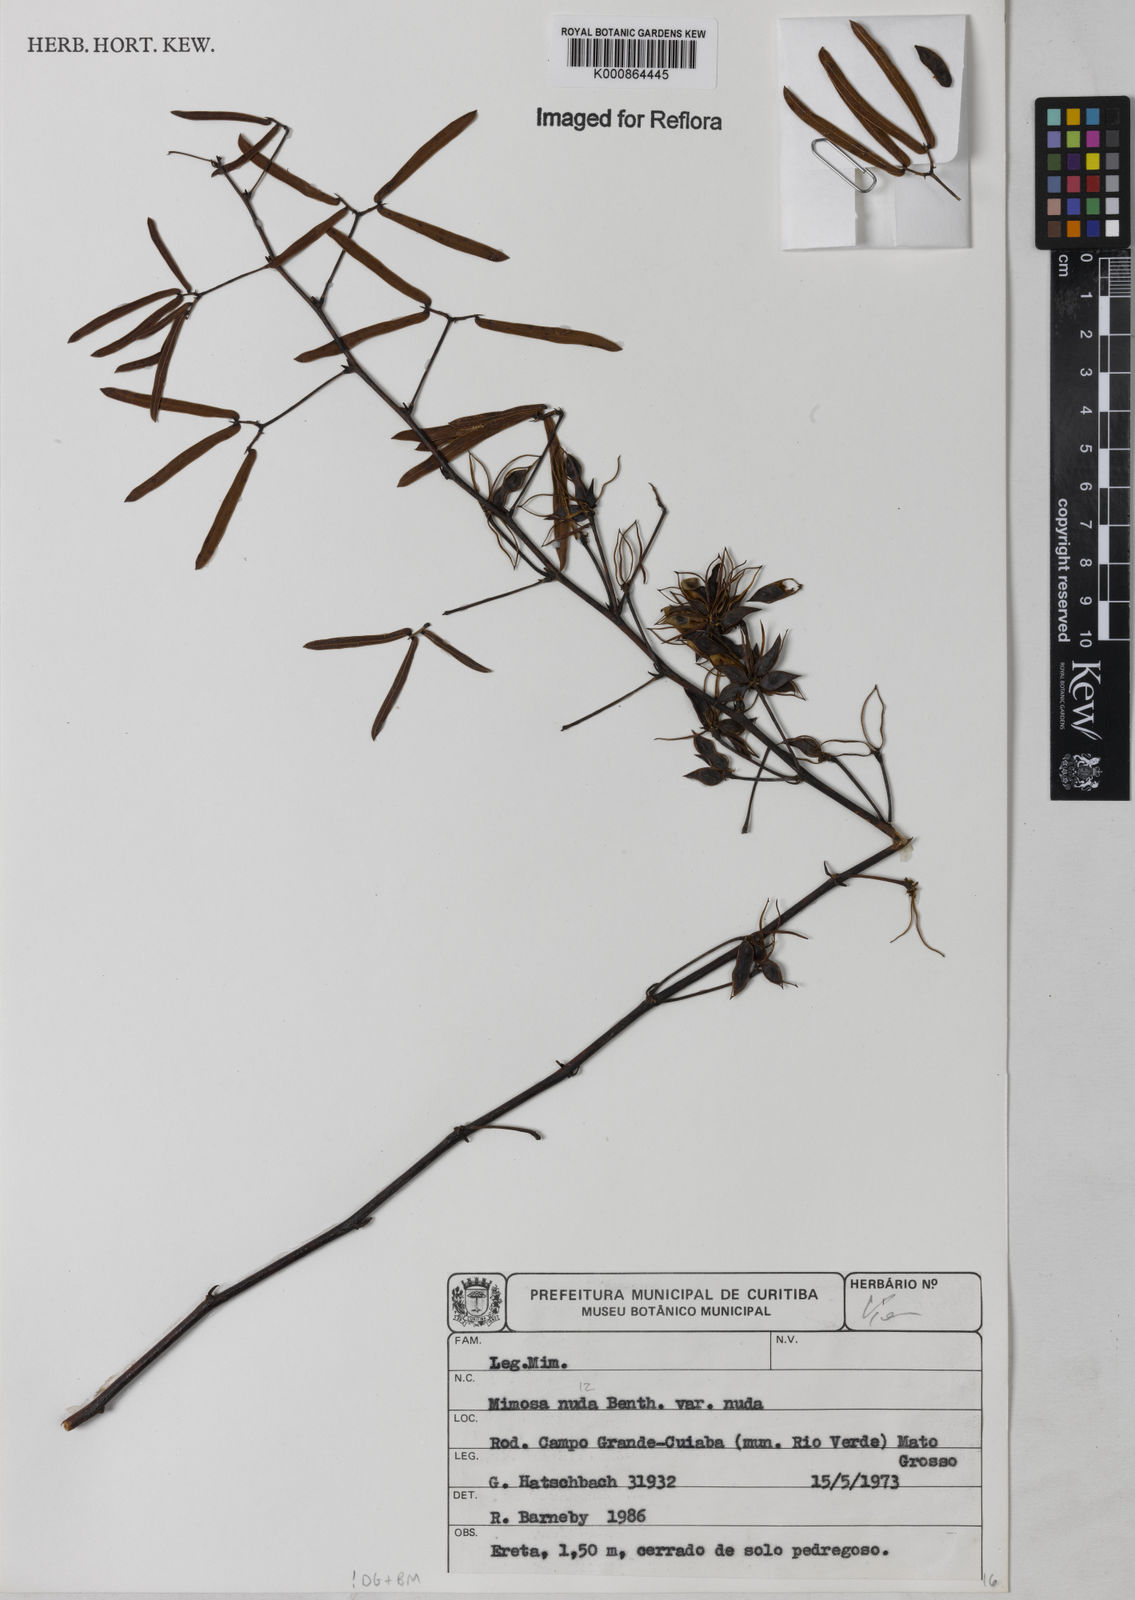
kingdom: Plantae
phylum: Tracheophyta
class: Magnoliopsida
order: Fabales
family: Fabaceae
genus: Mimosa
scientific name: Mimosa debilis
